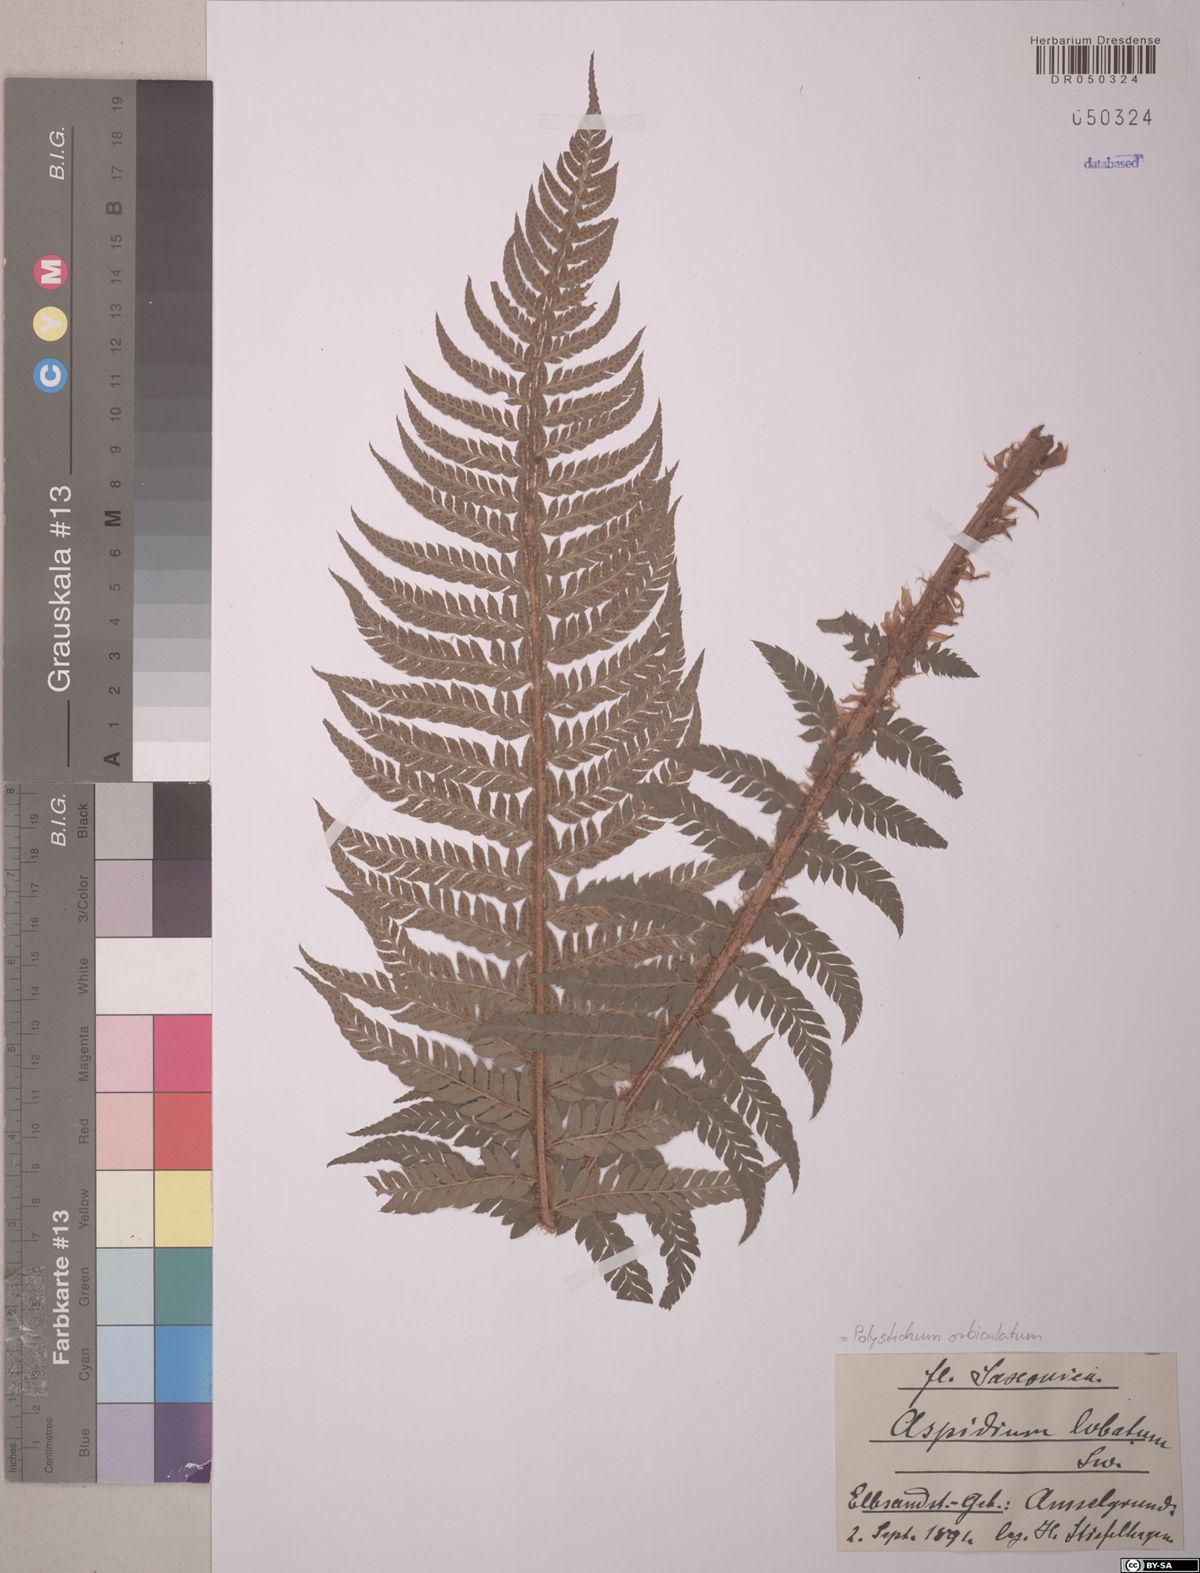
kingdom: Plantae
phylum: Tracheophyta
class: Polypodiopsida
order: Polypodiales
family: Dryopteridaceae
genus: Polystichum
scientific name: Polystichum aculeatum
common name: Hard shield-fern
